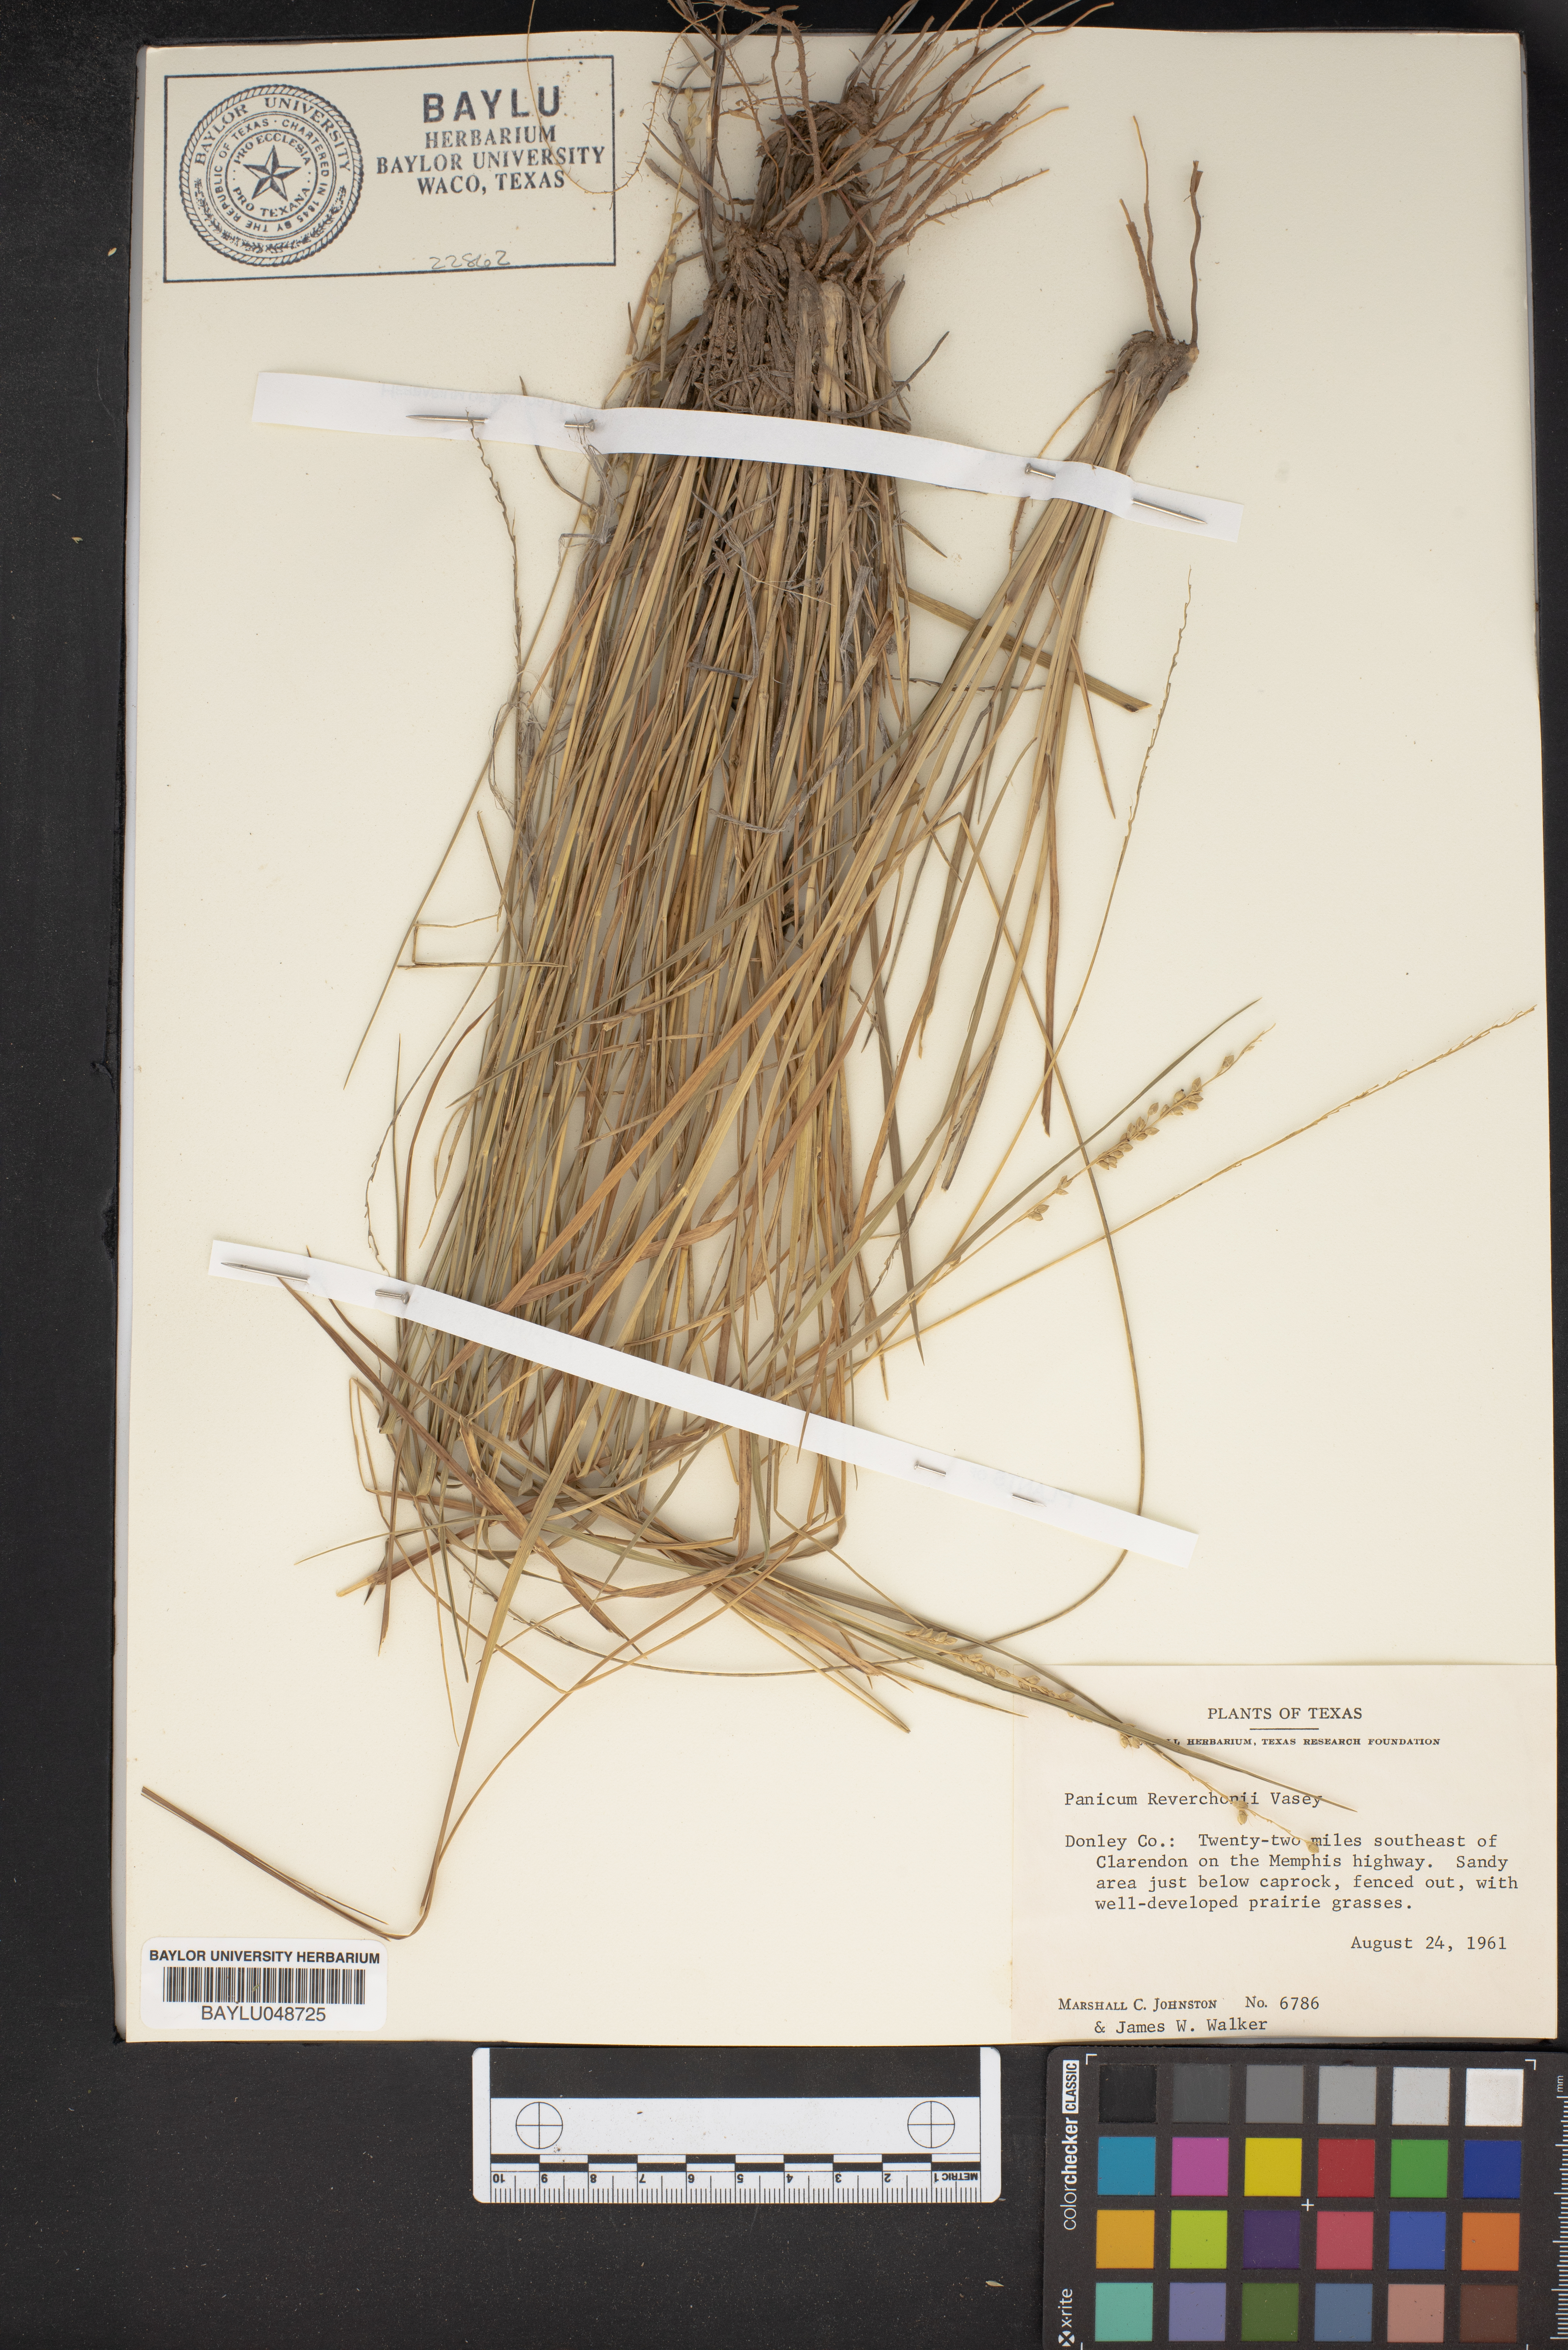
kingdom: Plantae
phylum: Tracheophyta
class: Liliopsida
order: Poales
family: Poaceae
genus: Setaria
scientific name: Setaria reverchonii
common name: Reverchon's bristle grass
